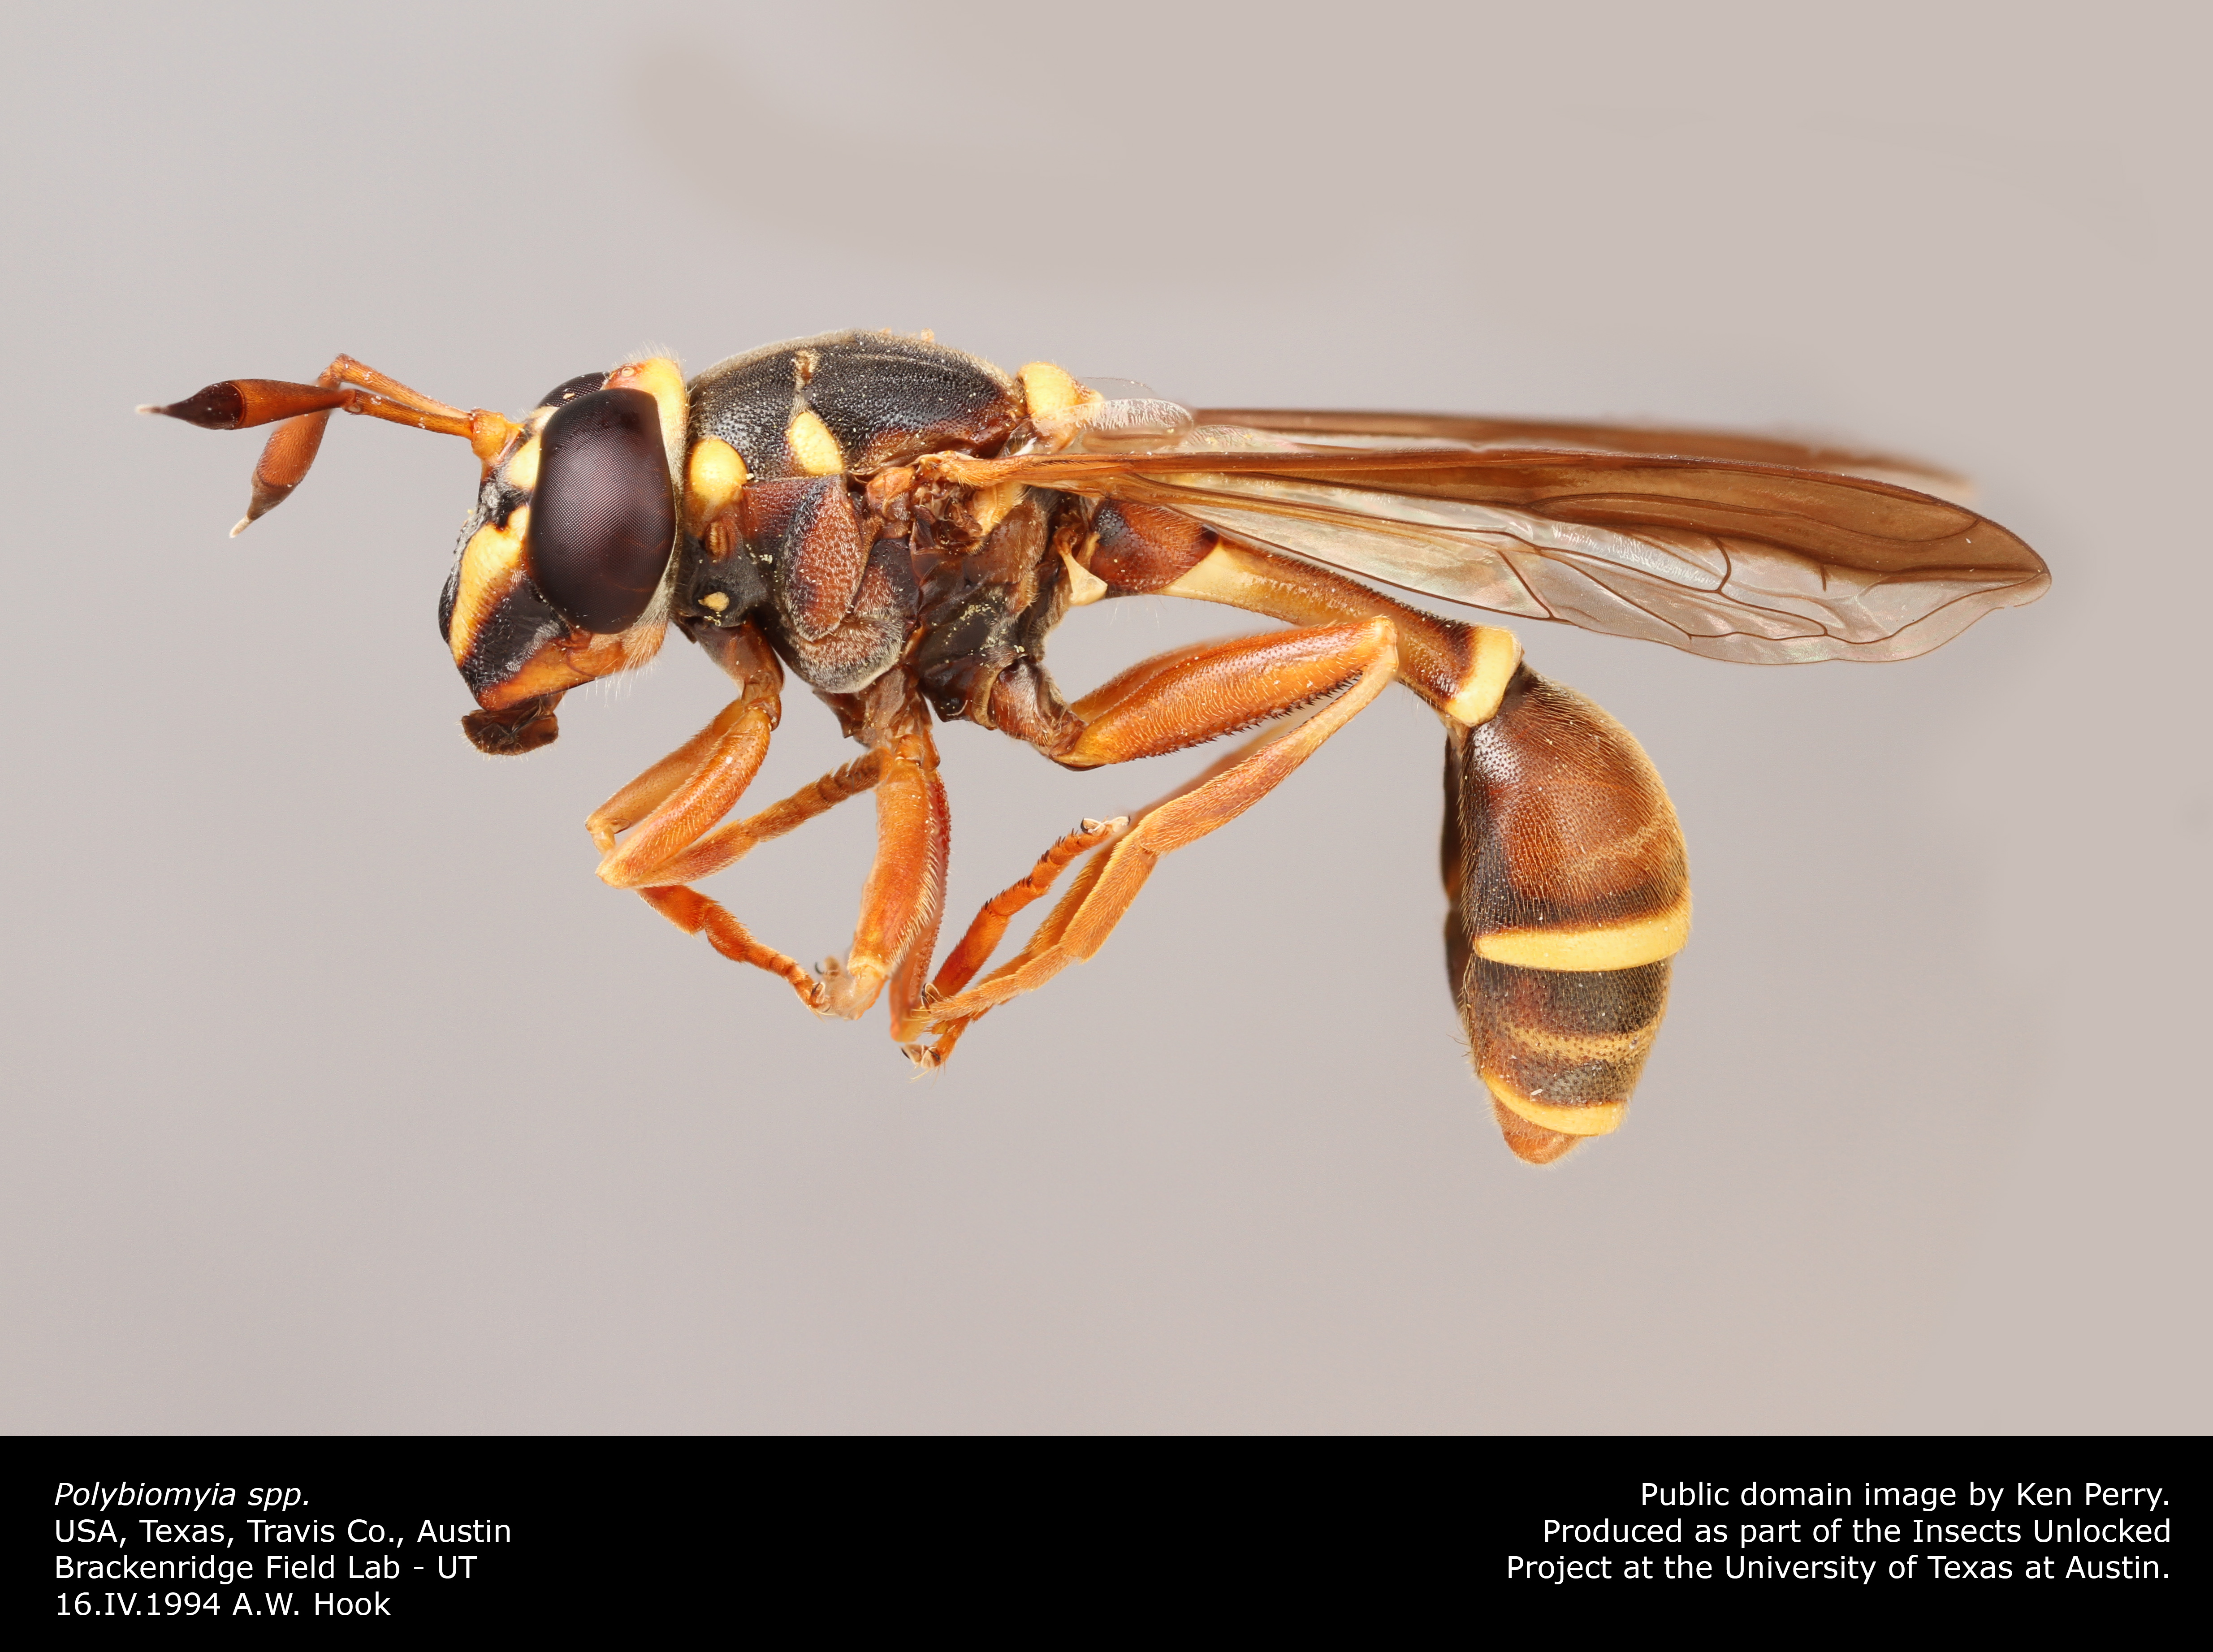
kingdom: Animalia
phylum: Arthropoda
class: Insecta
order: Diptera
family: Syrphidae
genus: Polybiomyia
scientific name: Polybiomyia
